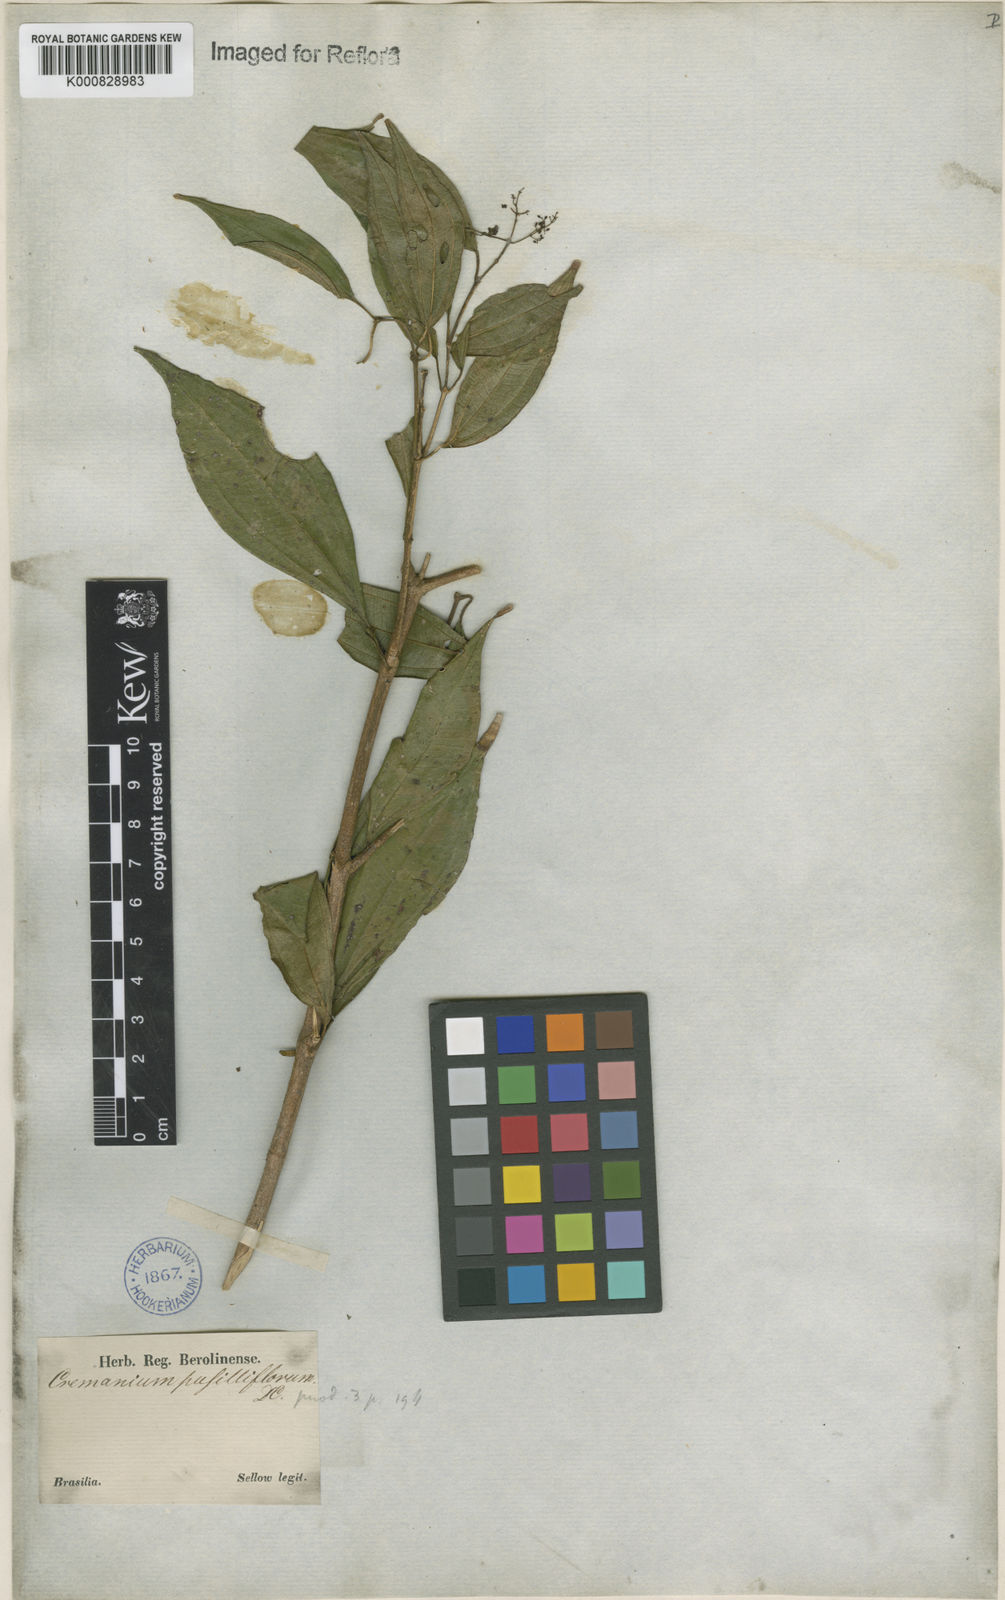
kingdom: Plantae
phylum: Tracheophyta
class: Magnoliopsida
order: Myrtales
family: Melastomataceae
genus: Miconia
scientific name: Miconia pusilliflora
